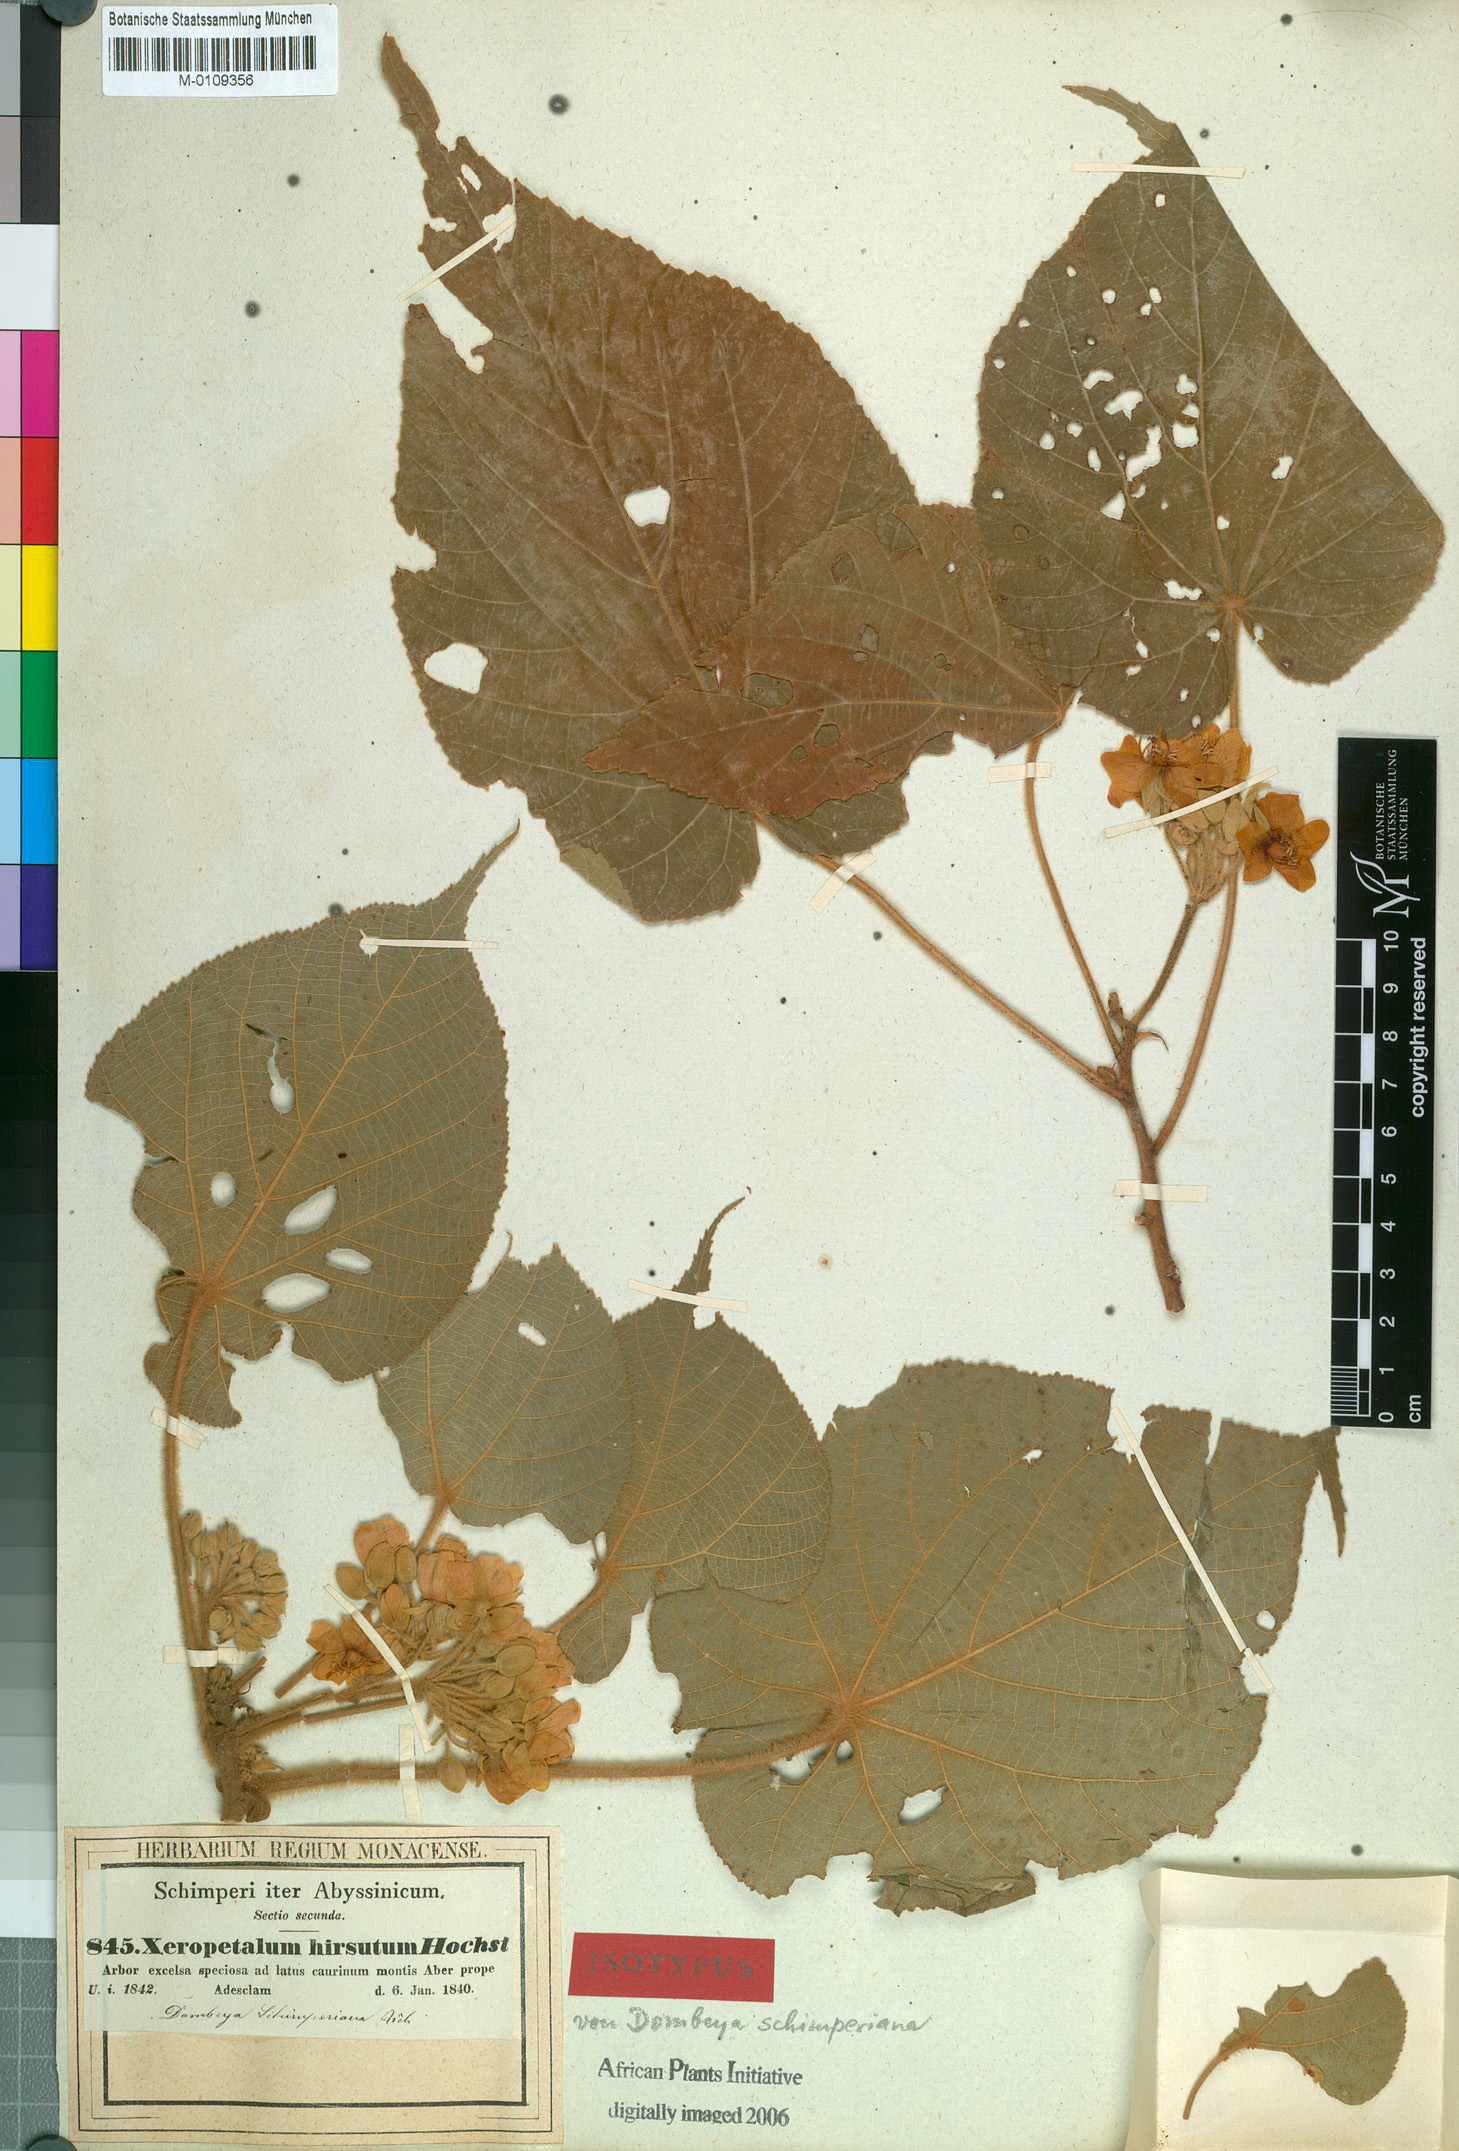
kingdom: Plantae
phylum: Tracheophyta
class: Magnoliopsida
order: Malvales
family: Malvaceae
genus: Dombeya
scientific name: Dombeya torrida
